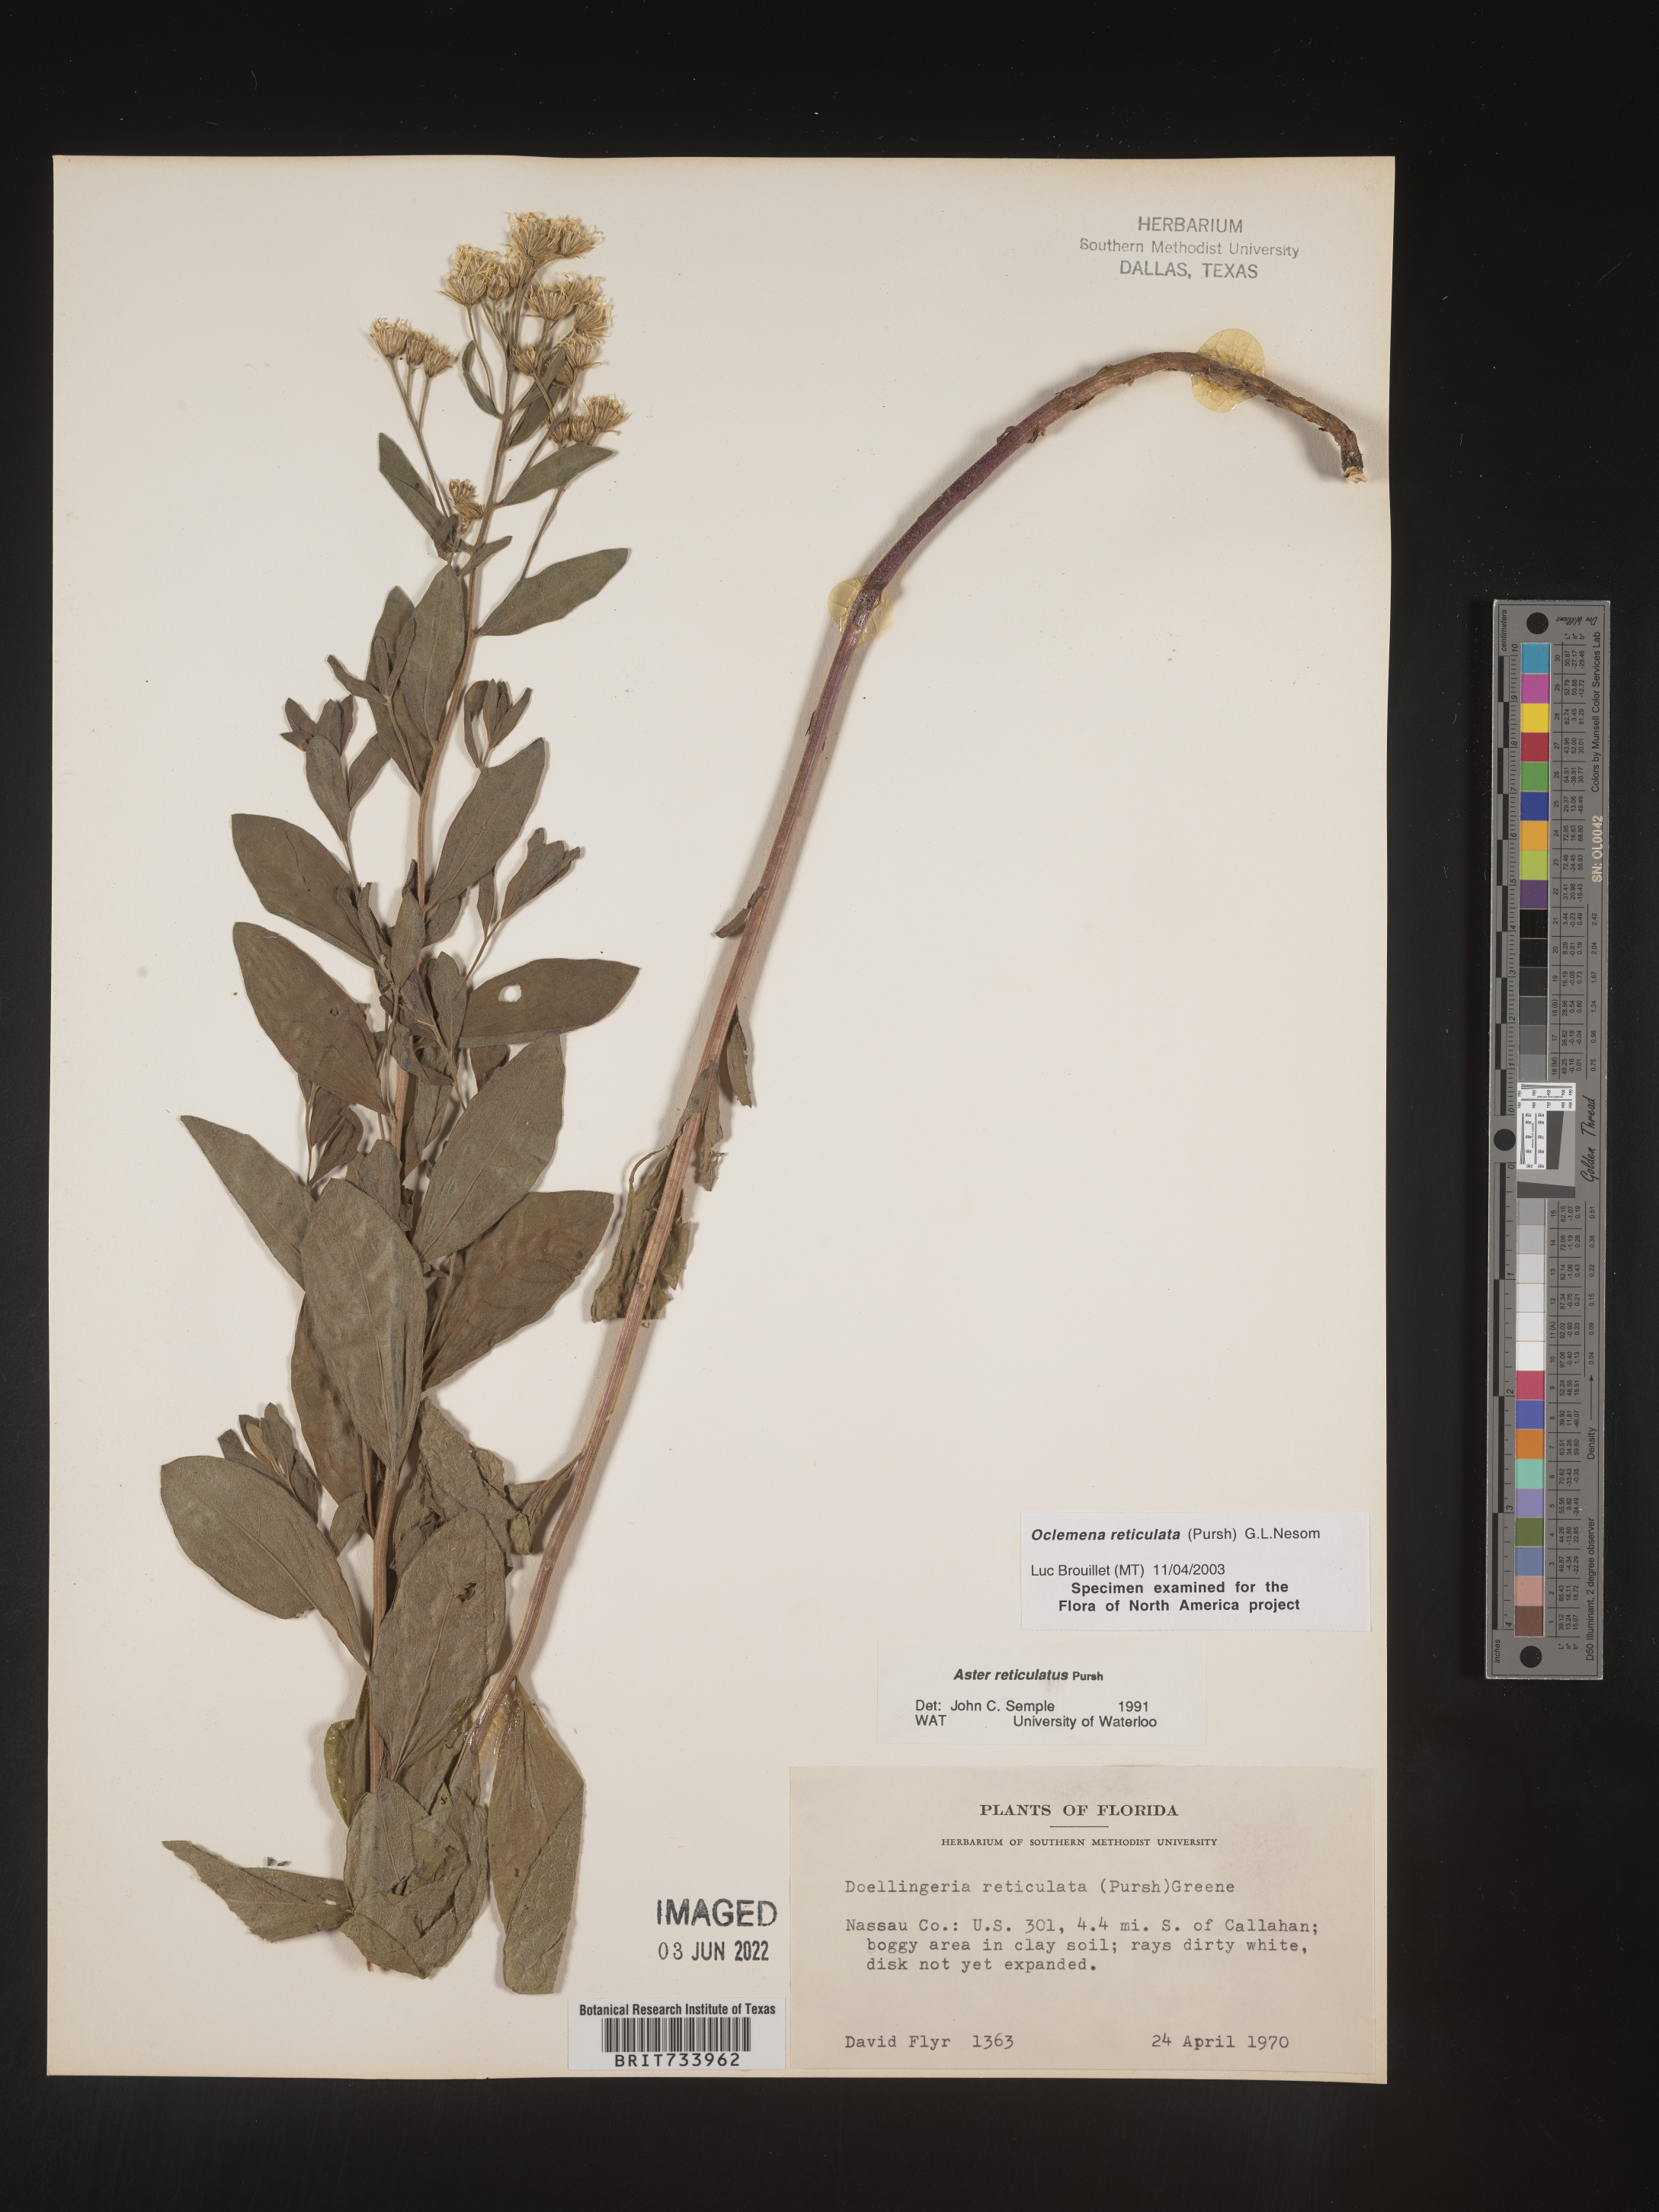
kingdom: Plantae
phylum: Tracheophyta
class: Magnoliopsida
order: Asterales
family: Asteraceae
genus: Oclemena
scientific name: Oclemena reticulata
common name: Pinebarren aster
